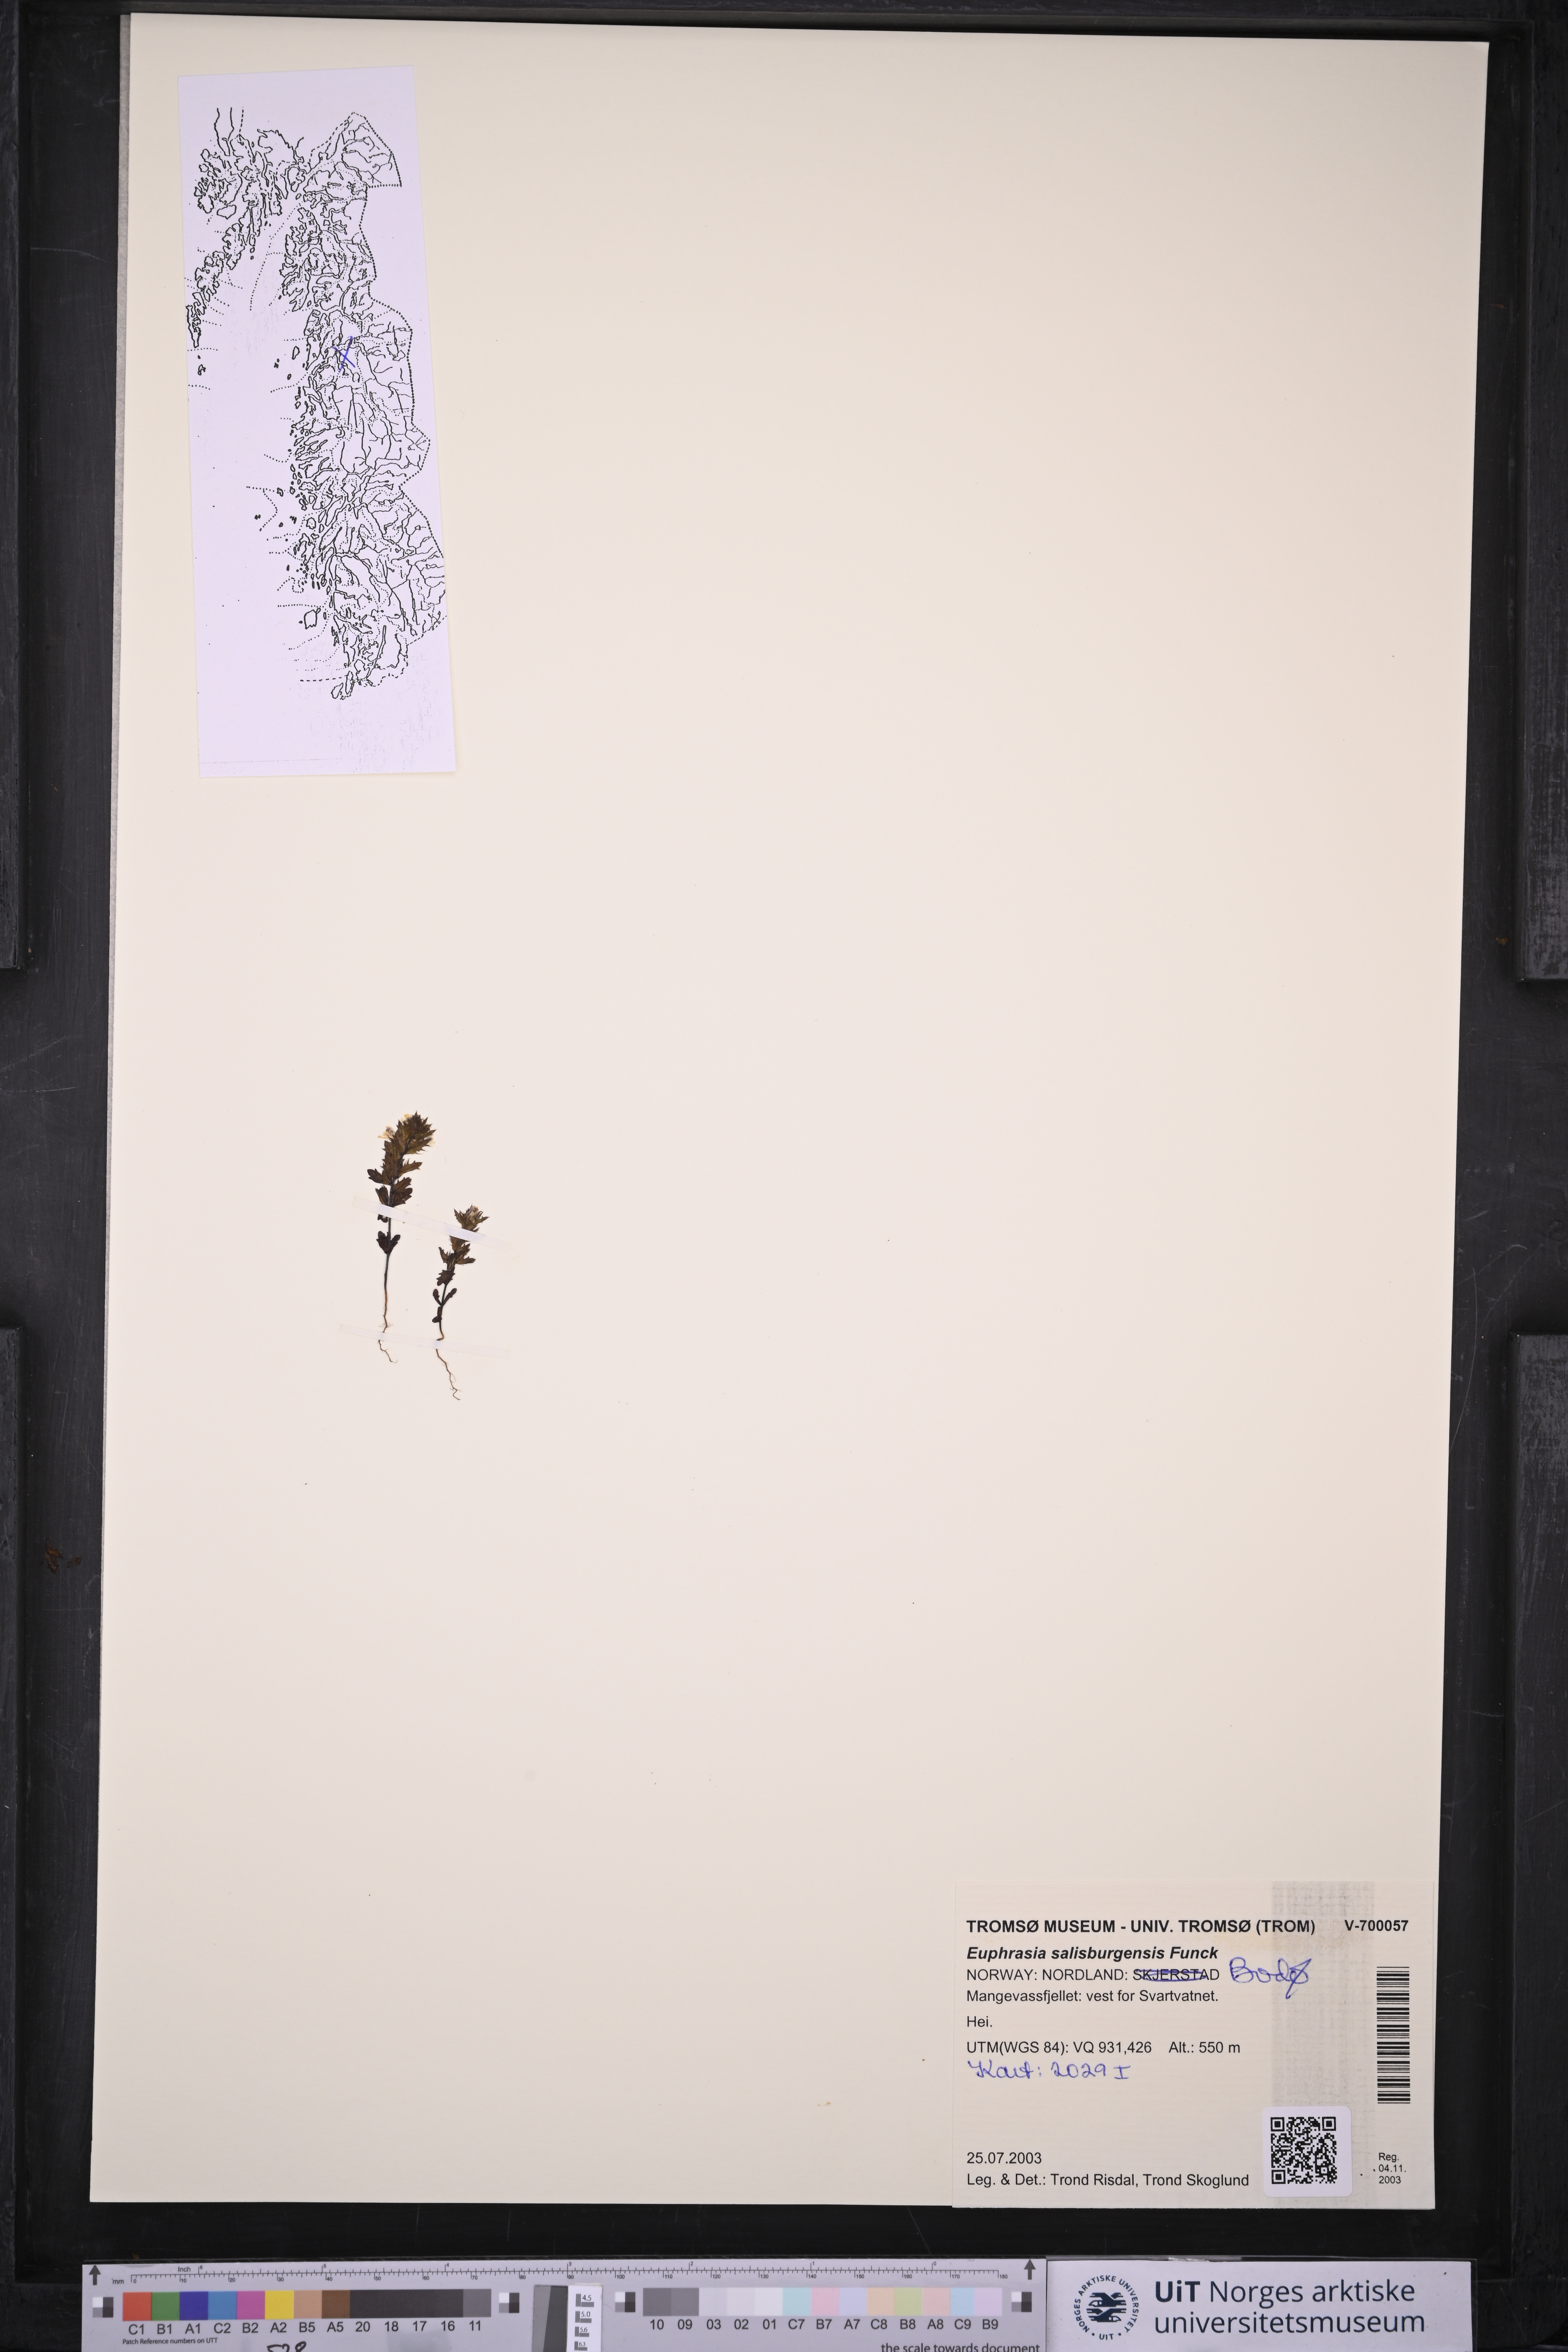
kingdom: Plantae
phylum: Tracheophyta
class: Magnoliopsida
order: Lamiales
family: Orobanchaceae
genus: Euphrasia
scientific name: Euphrasia salisburgensis
